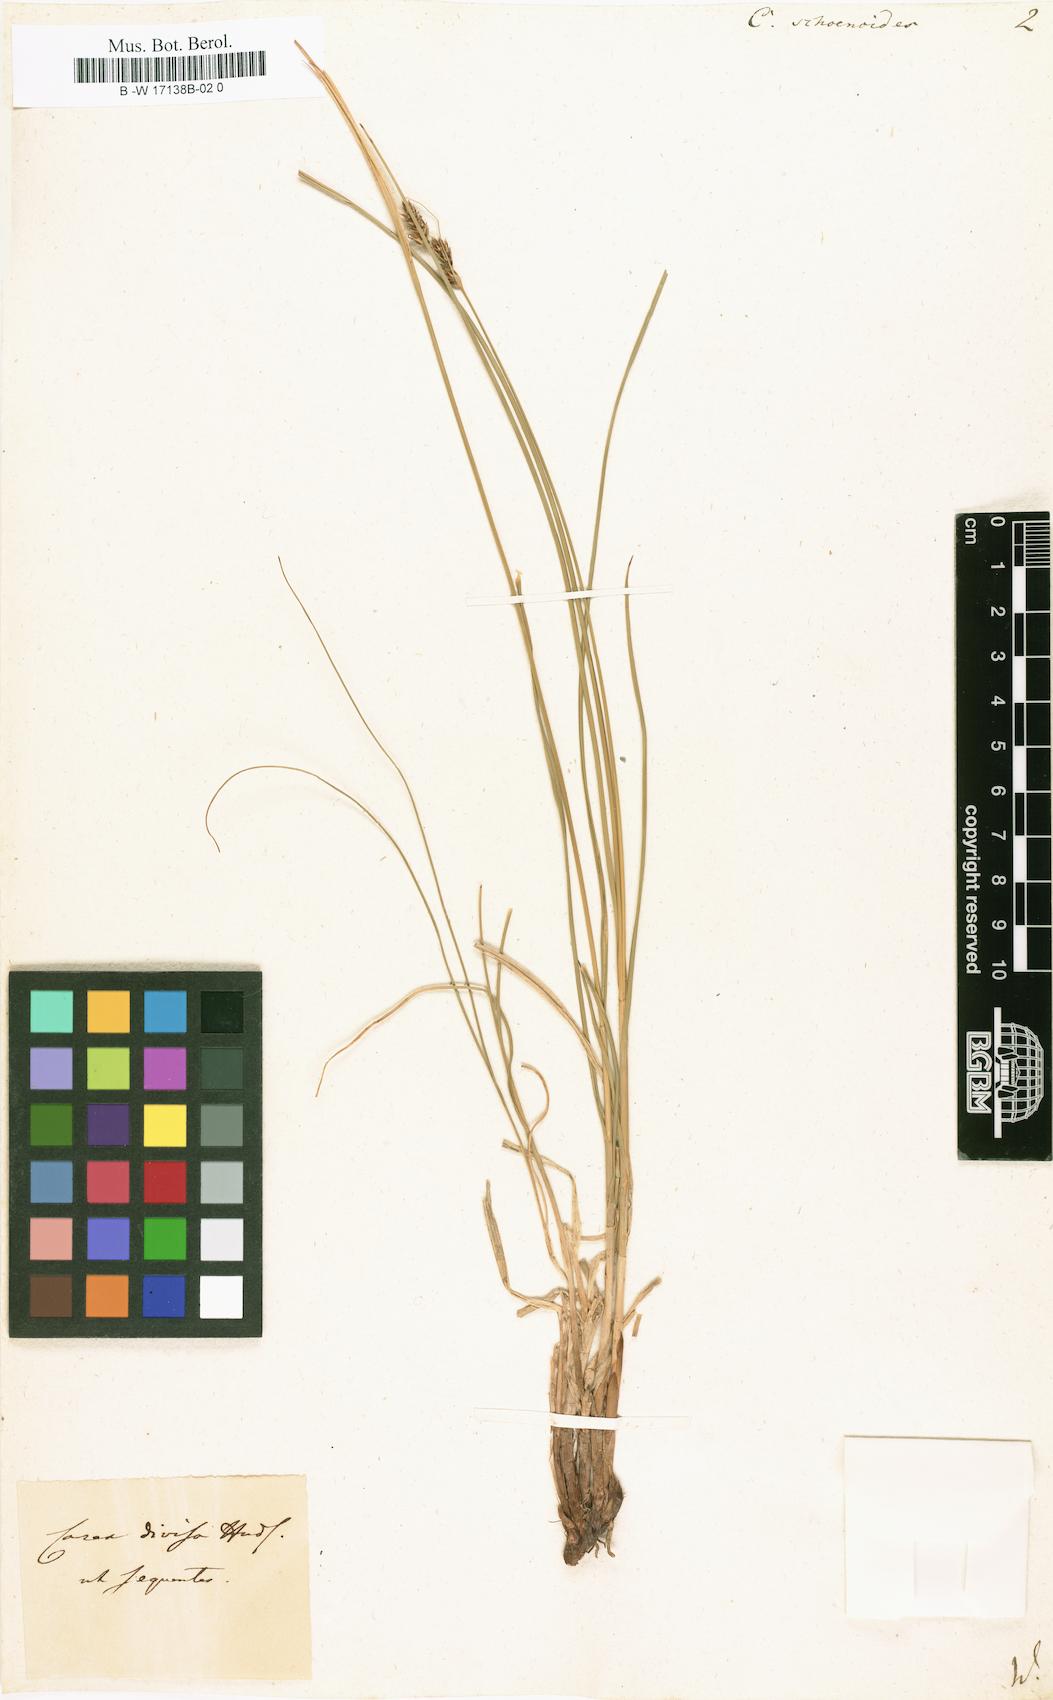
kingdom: Plantae
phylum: Tracheophyta
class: Liliopsida
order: Poales
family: Cyperaceae
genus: Carex
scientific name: Carex
